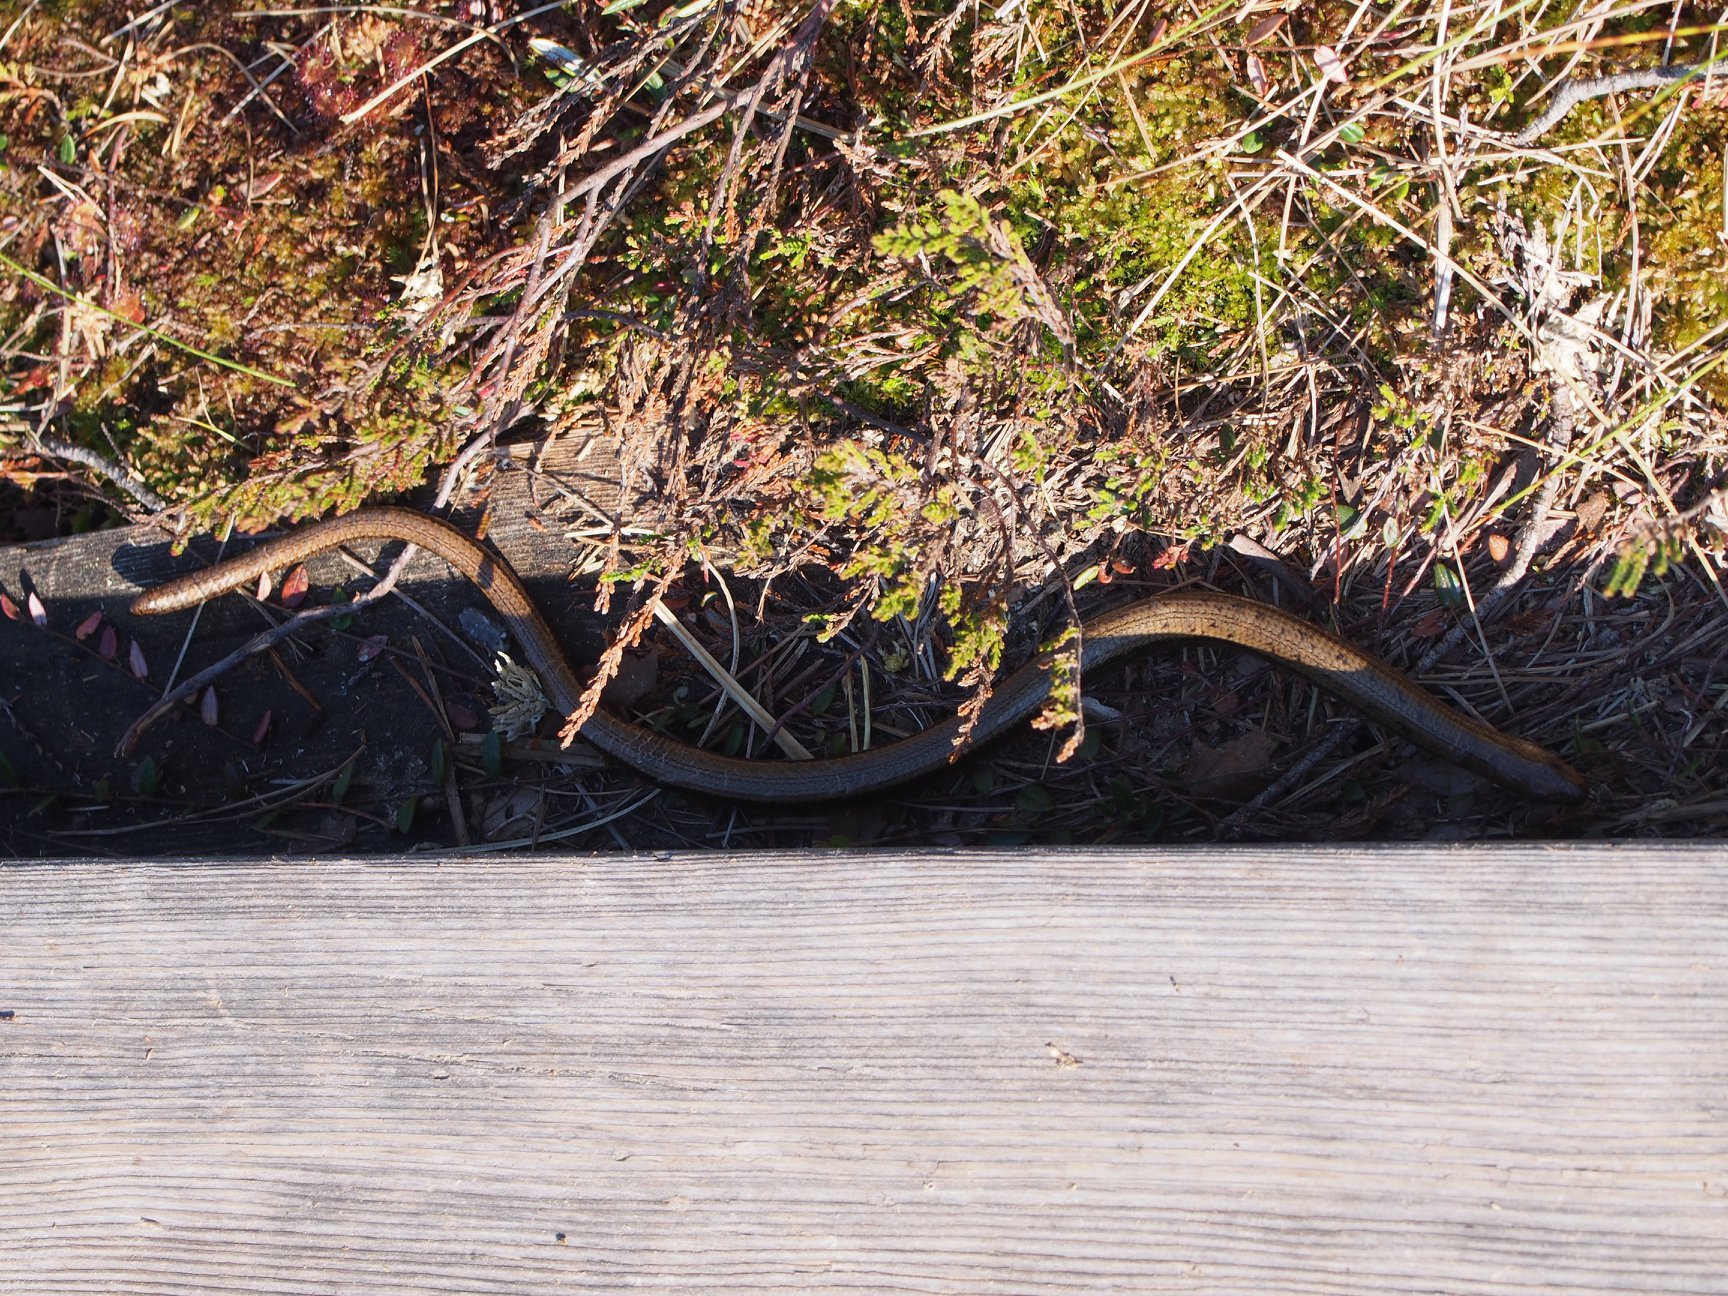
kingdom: Animalia
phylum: Chordata
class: Squamata
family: Anguidae
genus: Anguis
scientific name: Anguis colchica
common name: Slow worm
